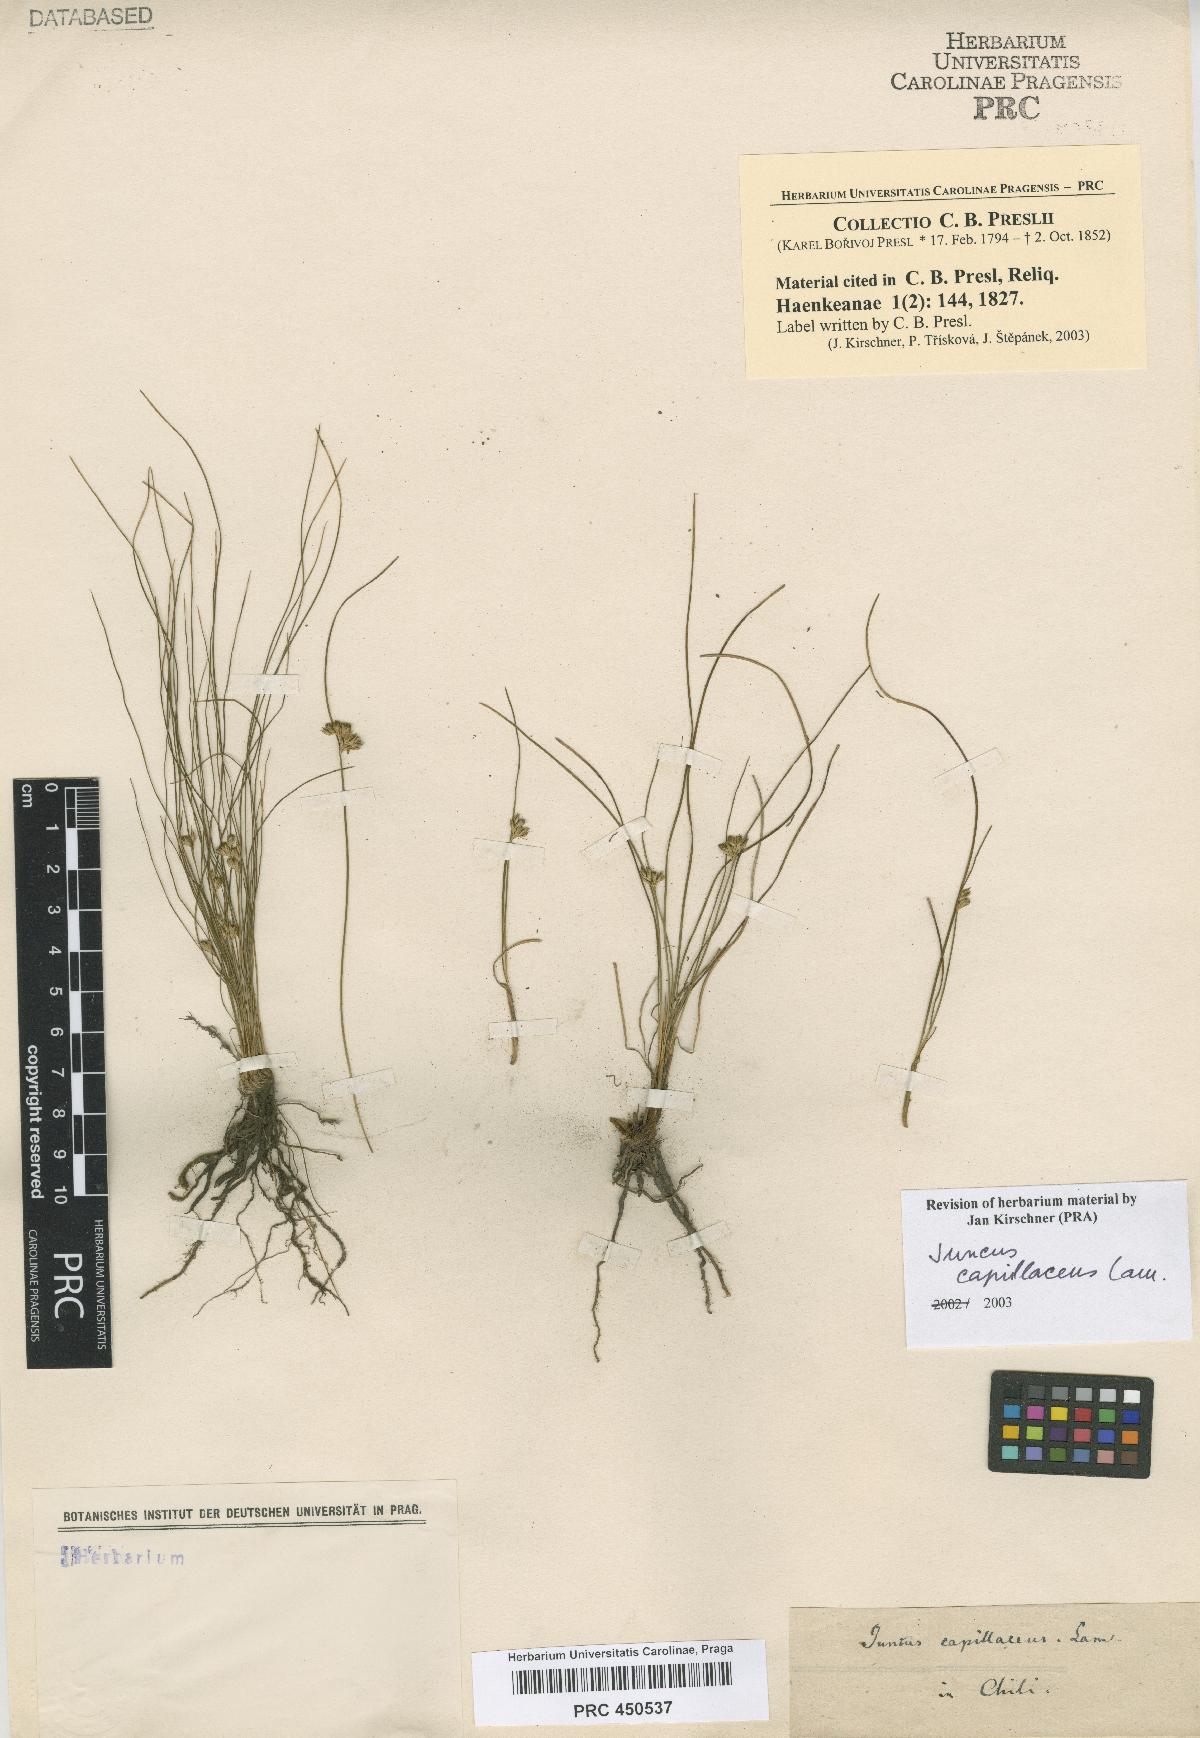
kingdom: Plantae
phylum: Tracheophyta
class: Liliopsida
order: Poales
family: Juncaceae
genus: Juncus
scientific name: Juncus capillaceus
